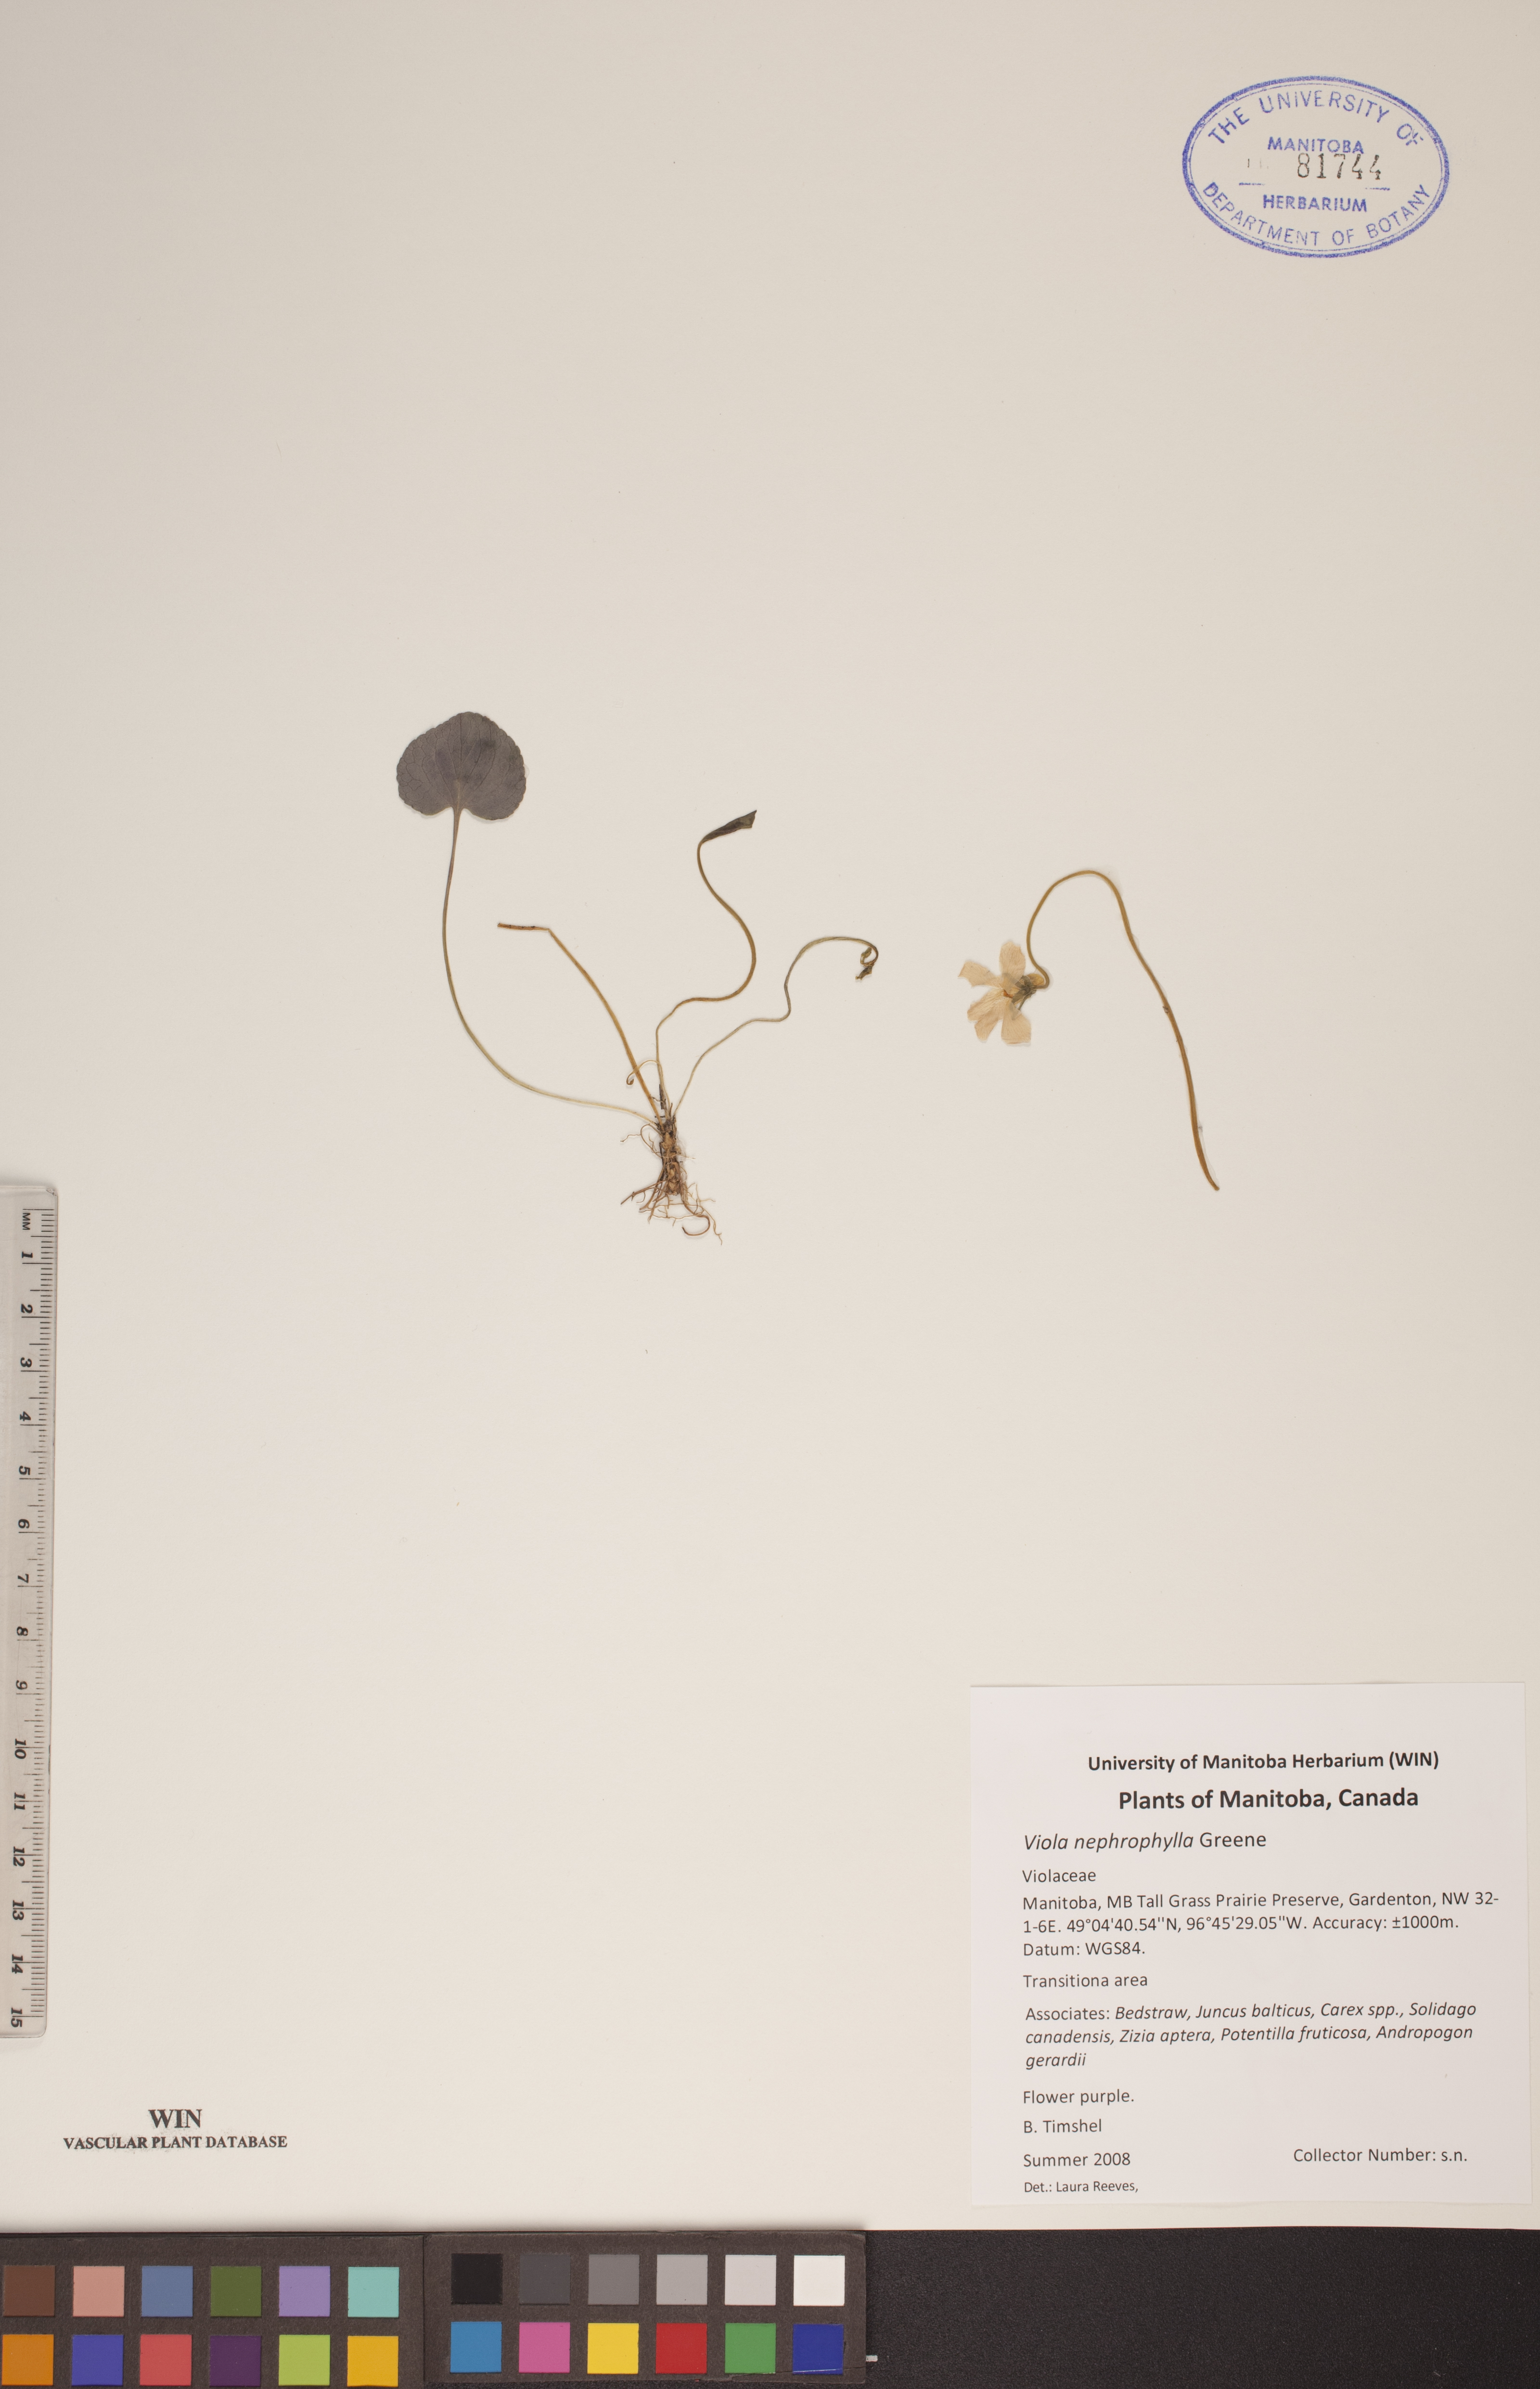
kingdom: Plantae
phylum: Tracheophyta
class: Magnoliopsida
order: Malpighiales
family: Violaceae
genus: Viola
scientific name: Viola nephrophylla
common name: Blue meadow violet
